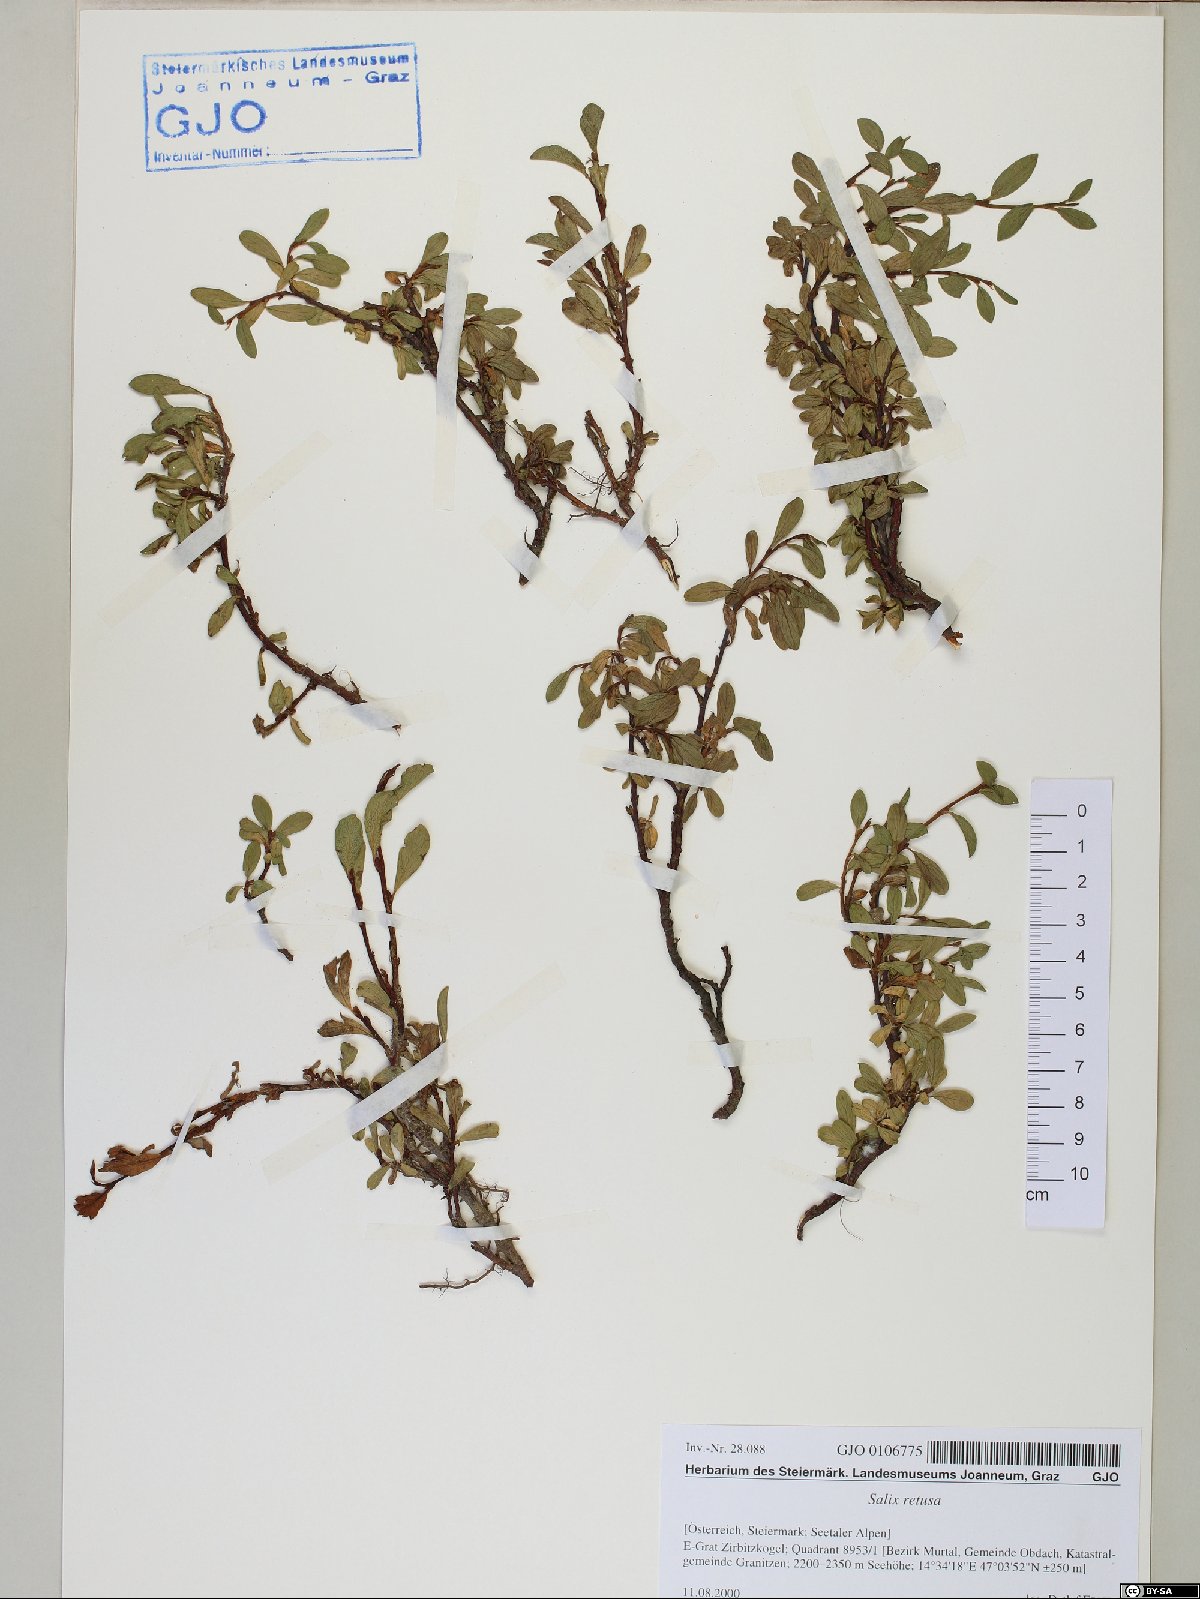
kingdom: Plantae
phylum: Tracheophyta
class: Magnoliopsida
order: Malpighiales
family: Salicaceae
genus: Salix
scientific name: Salix retusa
